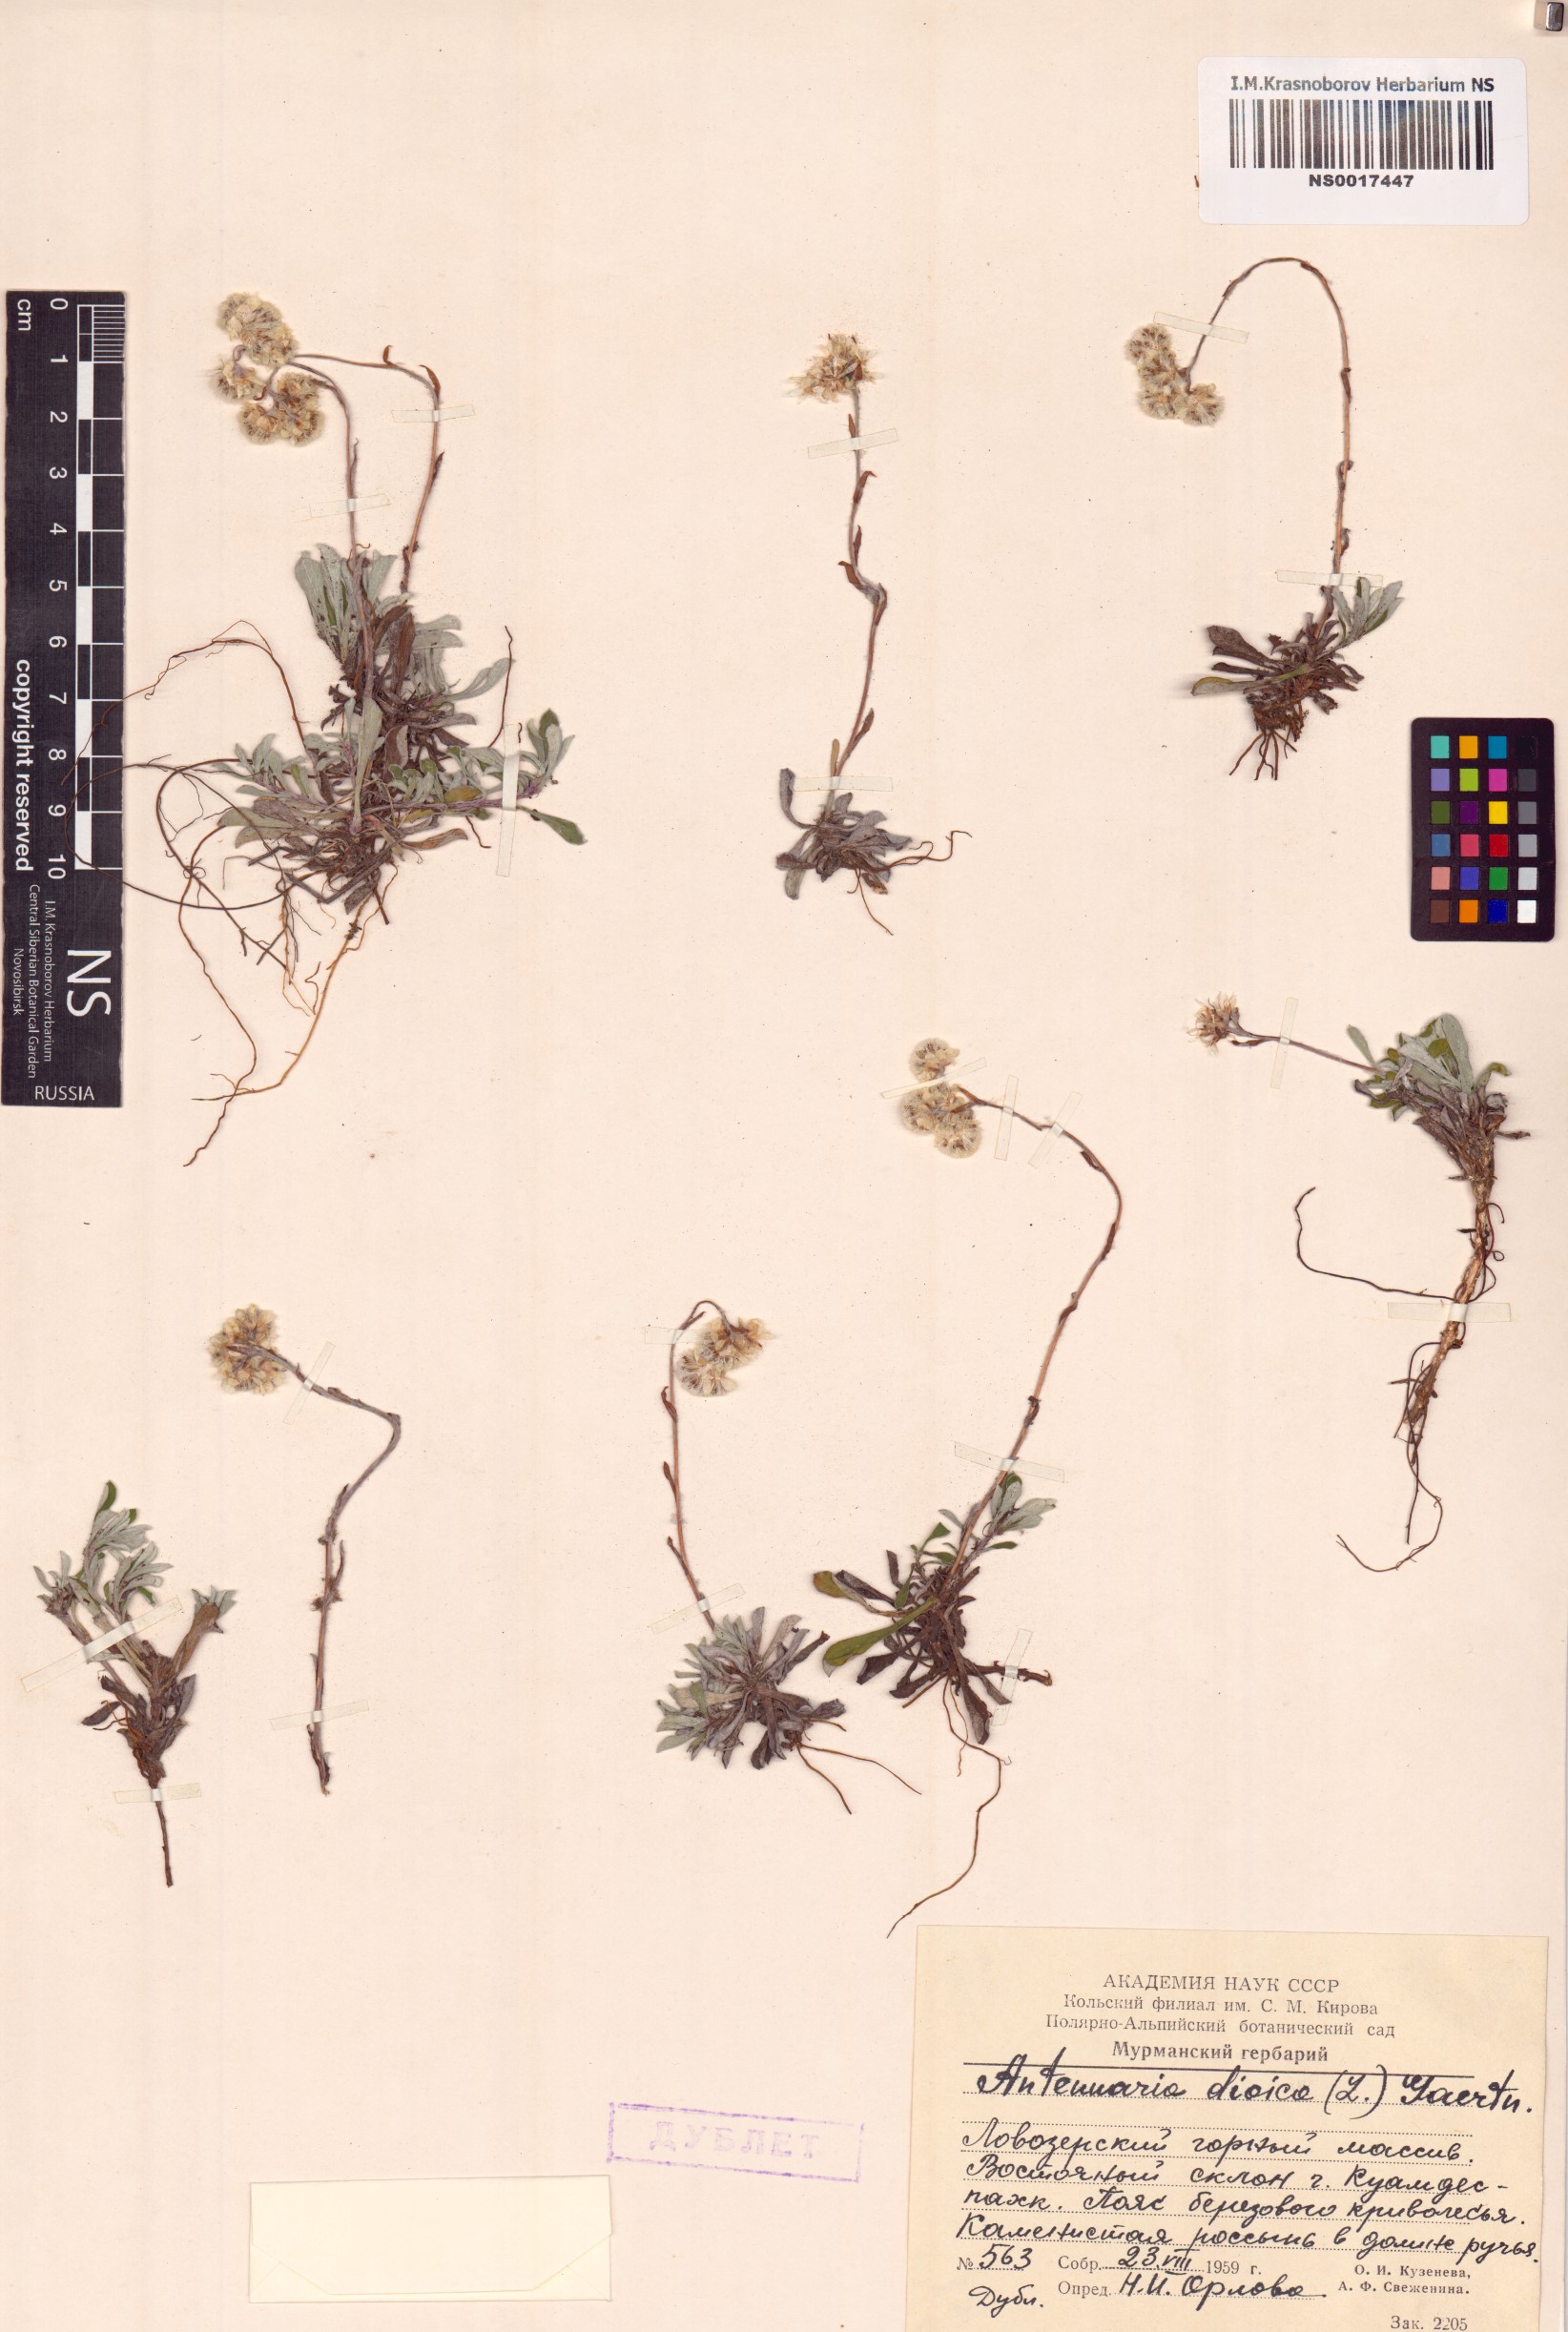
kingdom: Plantae
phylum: Tracheophyta
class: Magnoliopsida
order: Asterales
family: Asteraceae
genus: Antennaria
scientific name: Antennaria dioica
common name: Mountain everlasting
